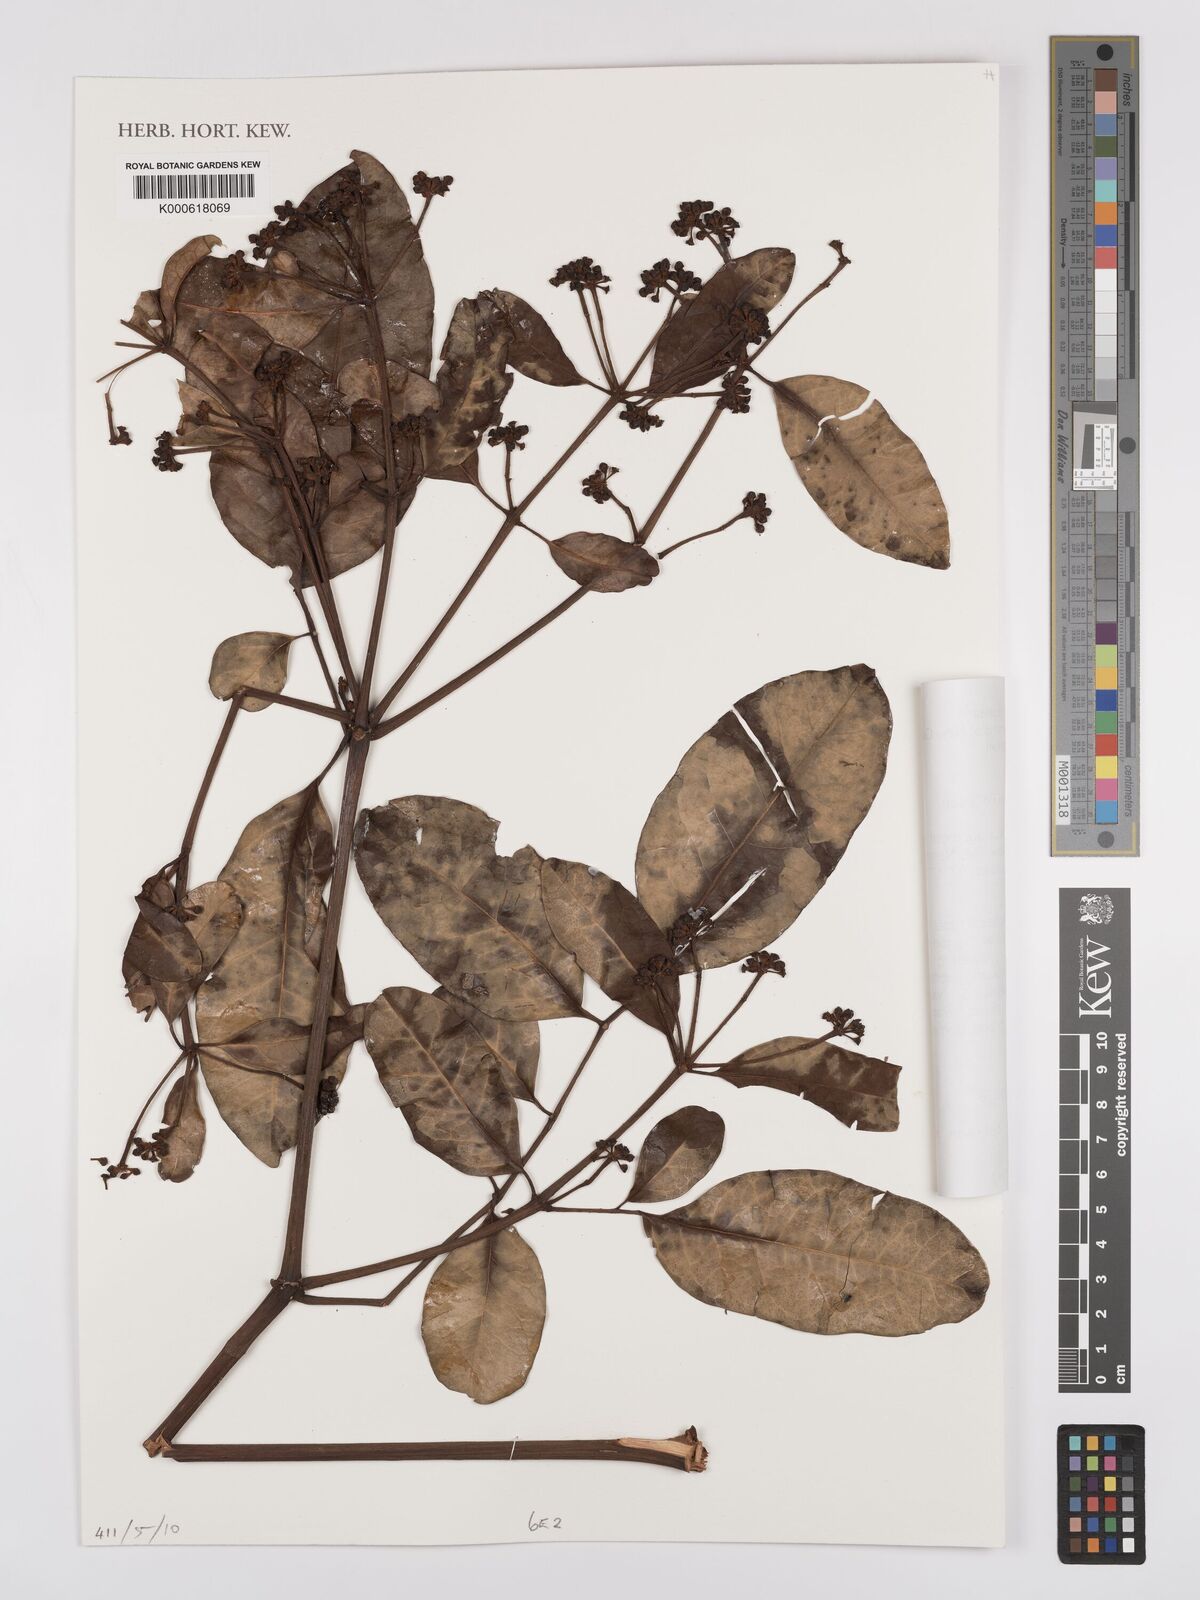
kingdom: Plantae
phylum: Tracheophyta
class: Magnoliopsida
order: Apiales
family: Araliaceae
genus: Polyscias
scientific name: Polyscias macranthum
